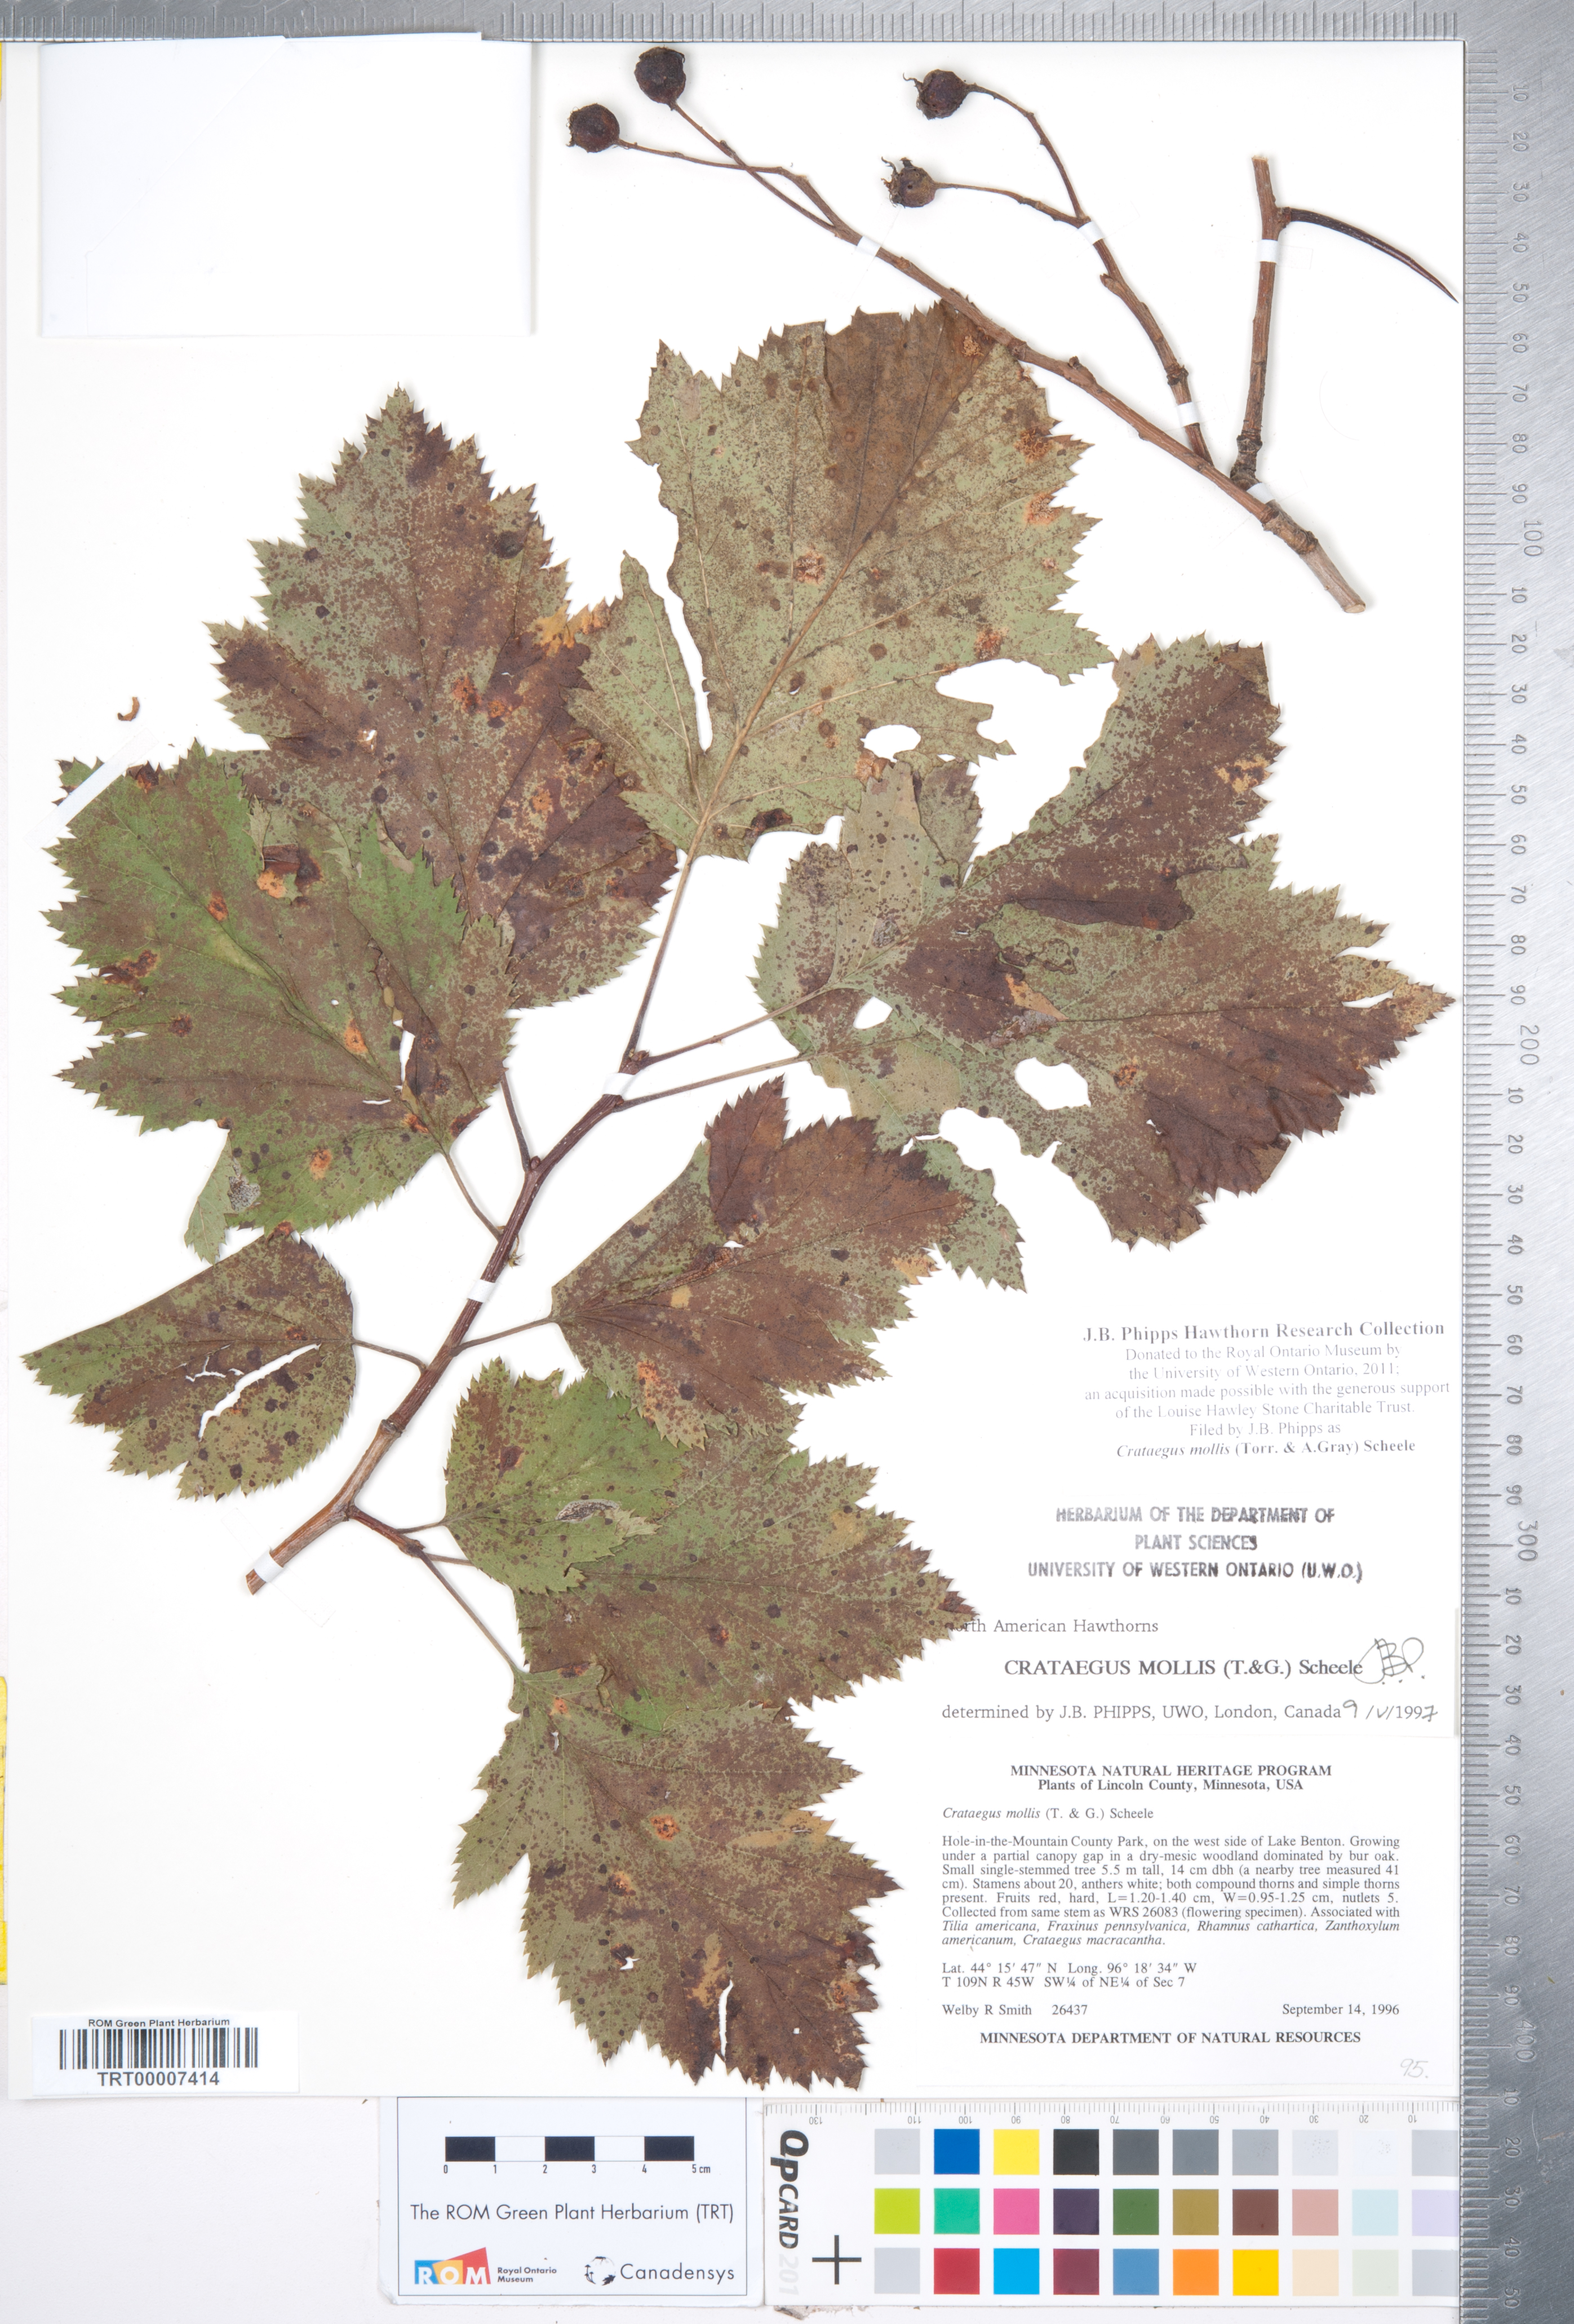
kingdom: Plantae
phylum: Tracheophyta
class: Magnoliopsida
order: Rosales
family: Rosaceae
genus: Crataegus
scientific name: Crataegus mollis
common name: Downy hawthorn
